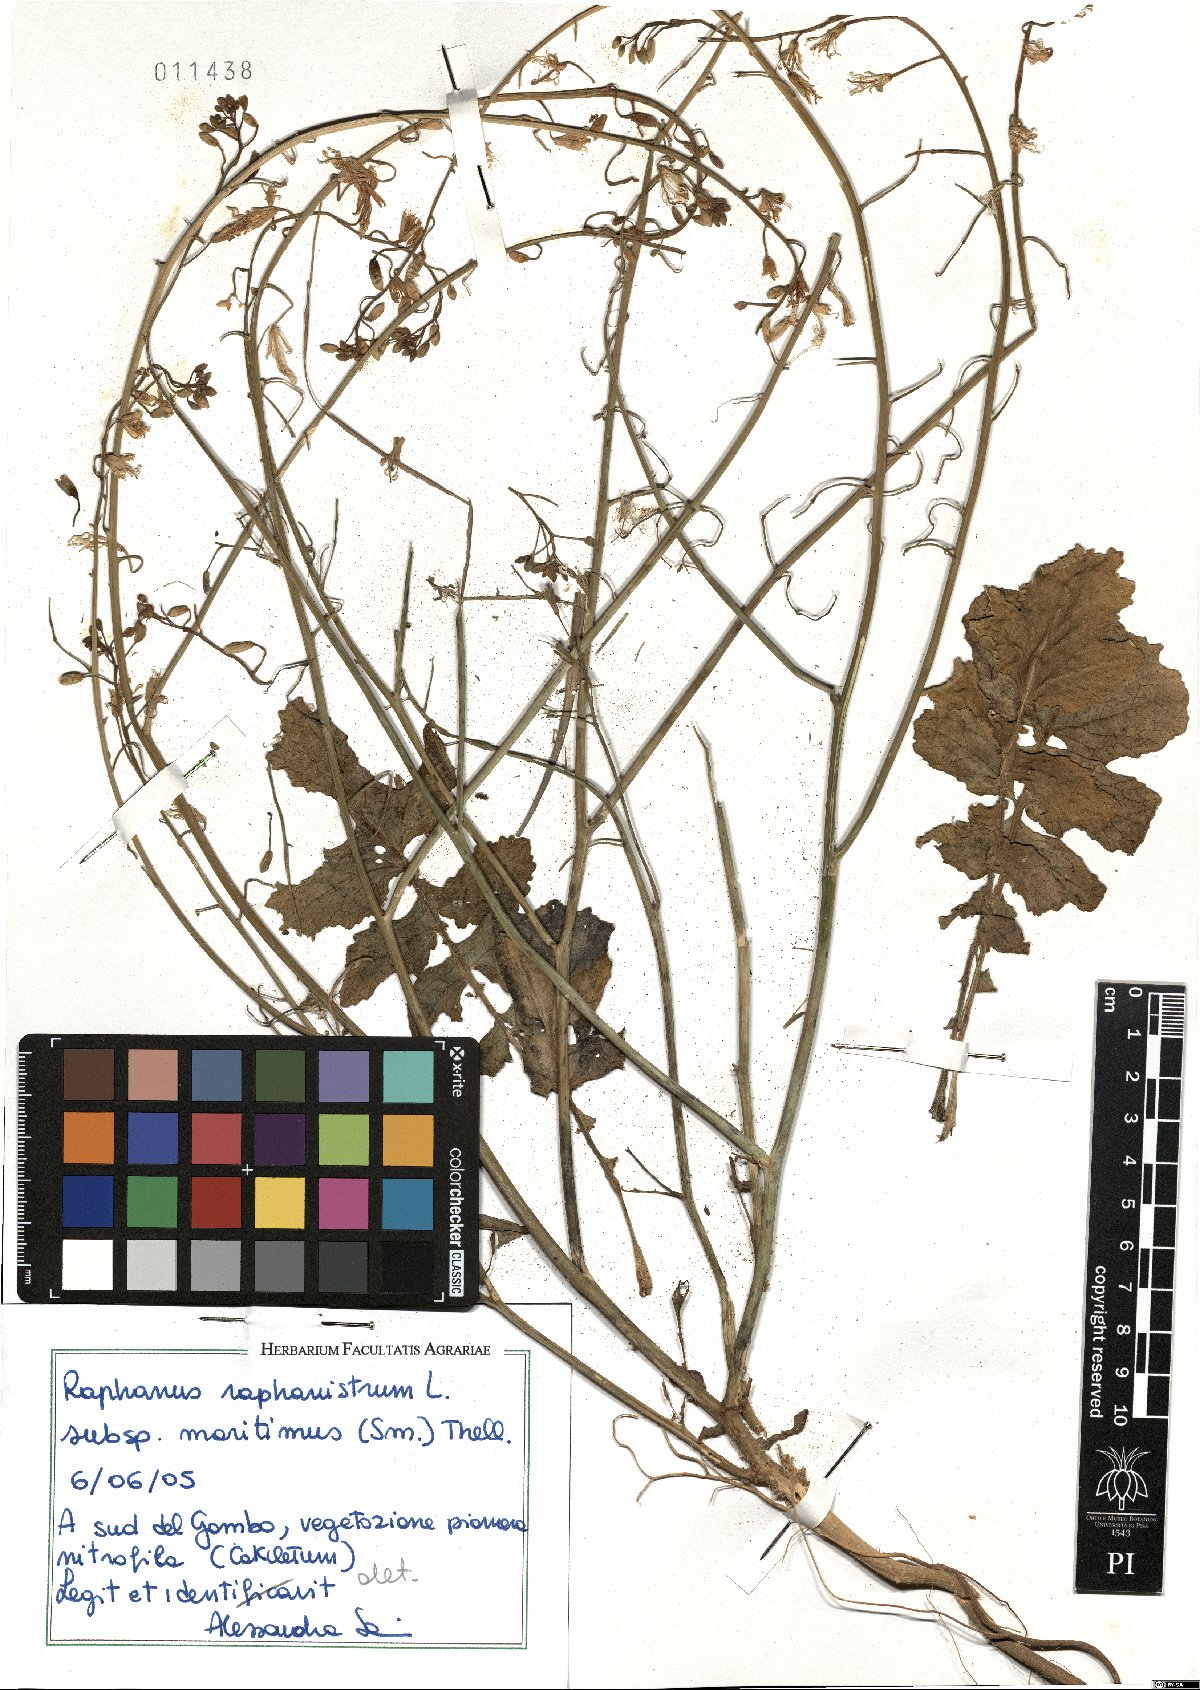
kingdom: Plantae
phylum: Tracheophyta
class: Magnoliopsida
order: Brassicales
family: Brassicaceae
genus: Raphanus
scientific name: Raphanus raphanistrum
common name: Wild radish
